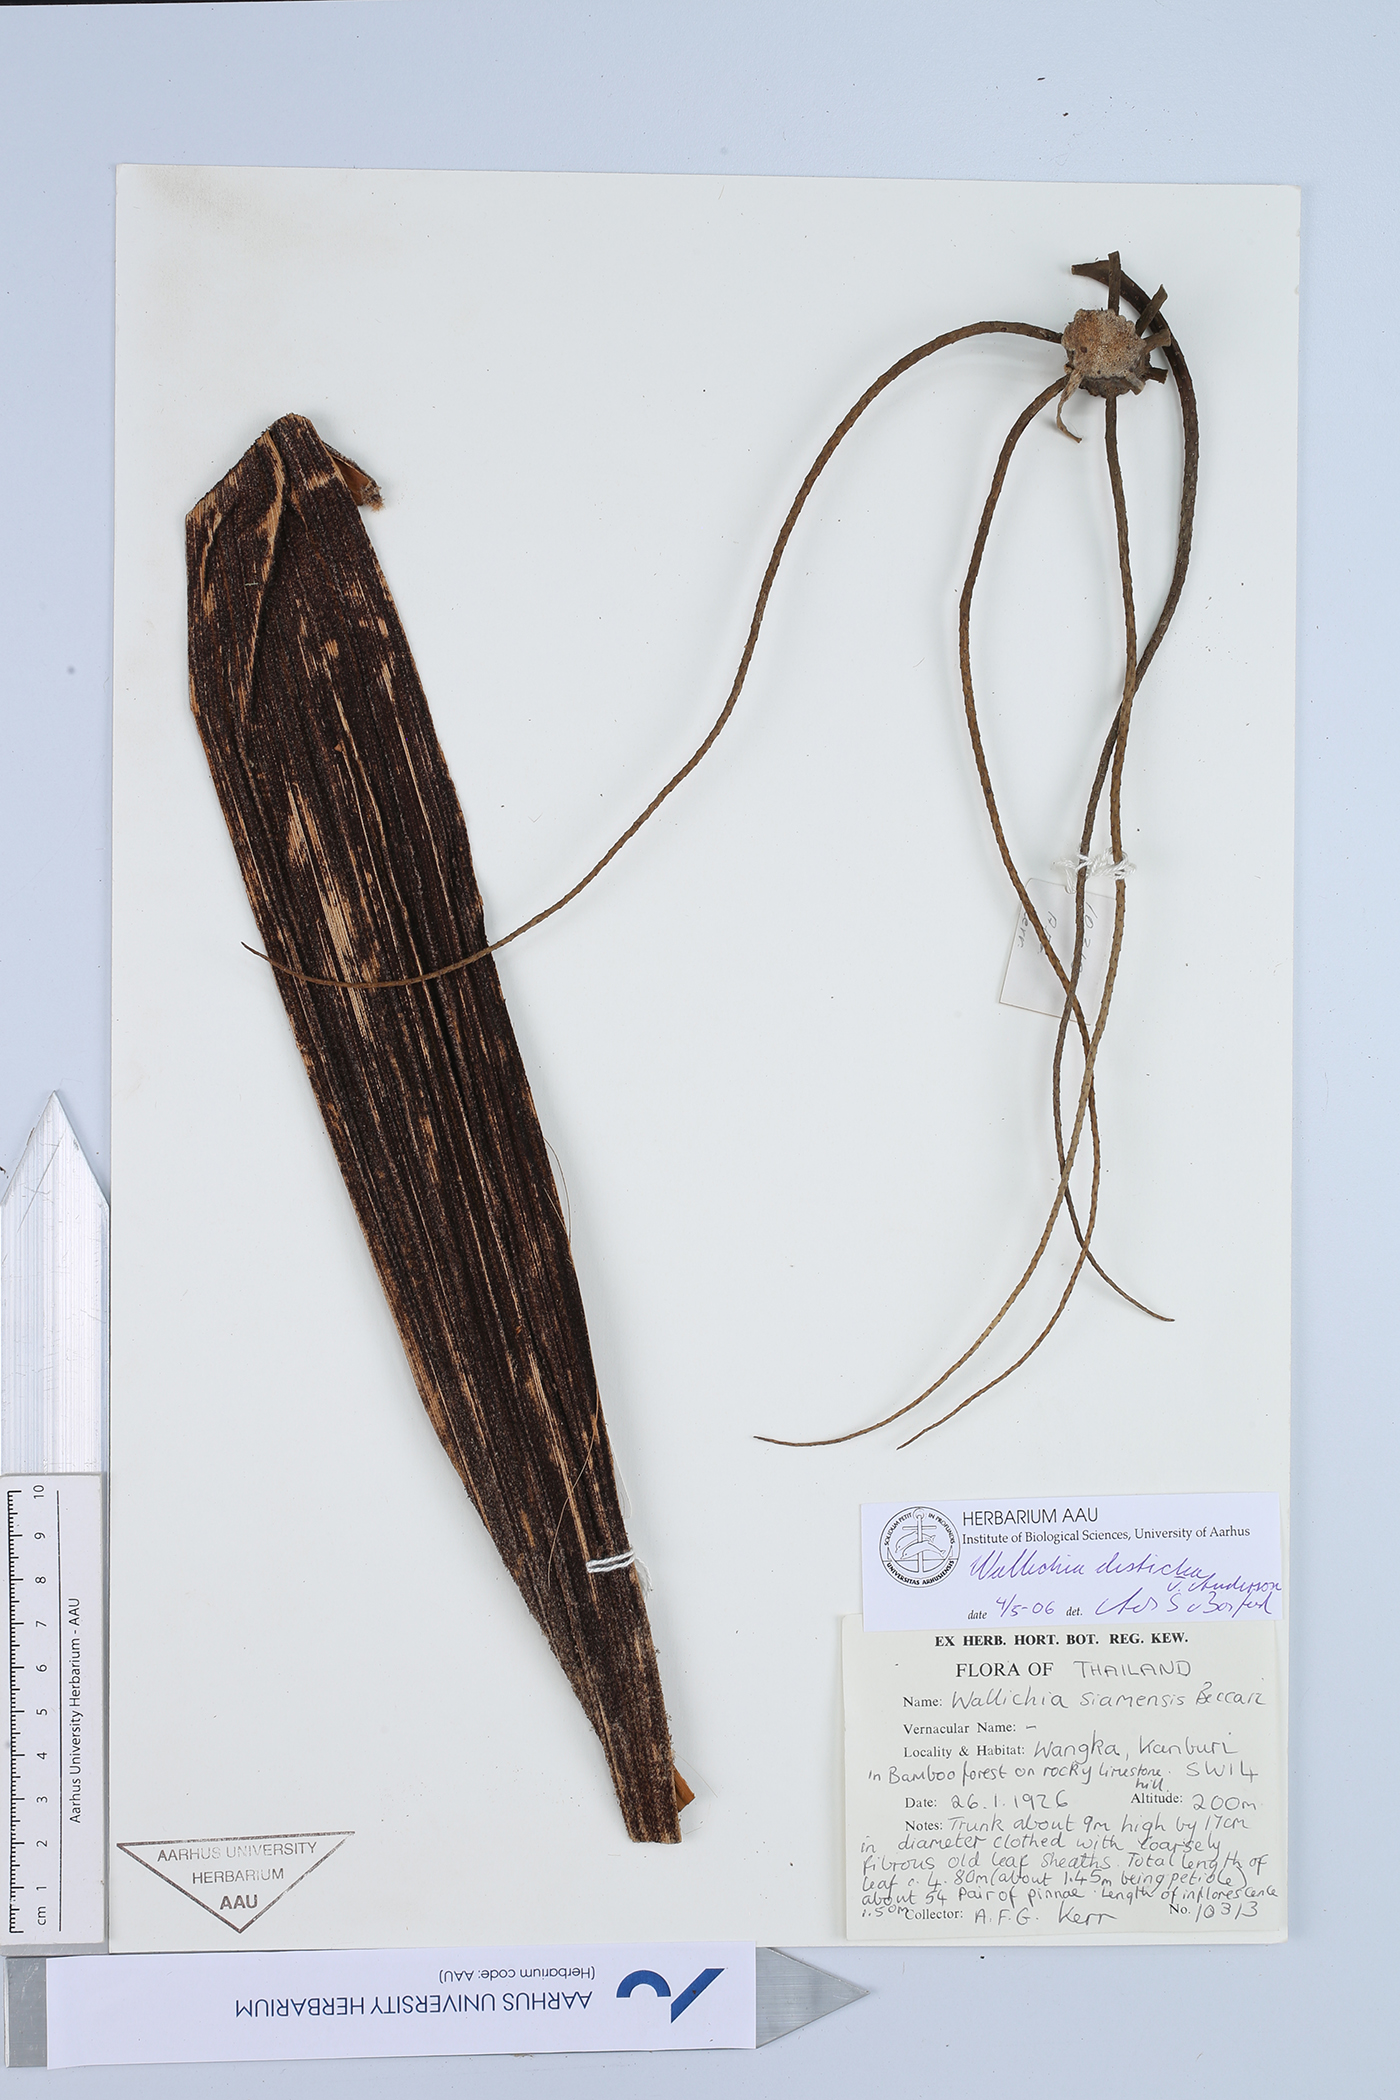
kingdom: Plantae
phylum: Tracheophyta
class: Liliopsida
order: Arecales
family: Arecaceae
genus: Wallichia
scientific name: Wallichia disticha
